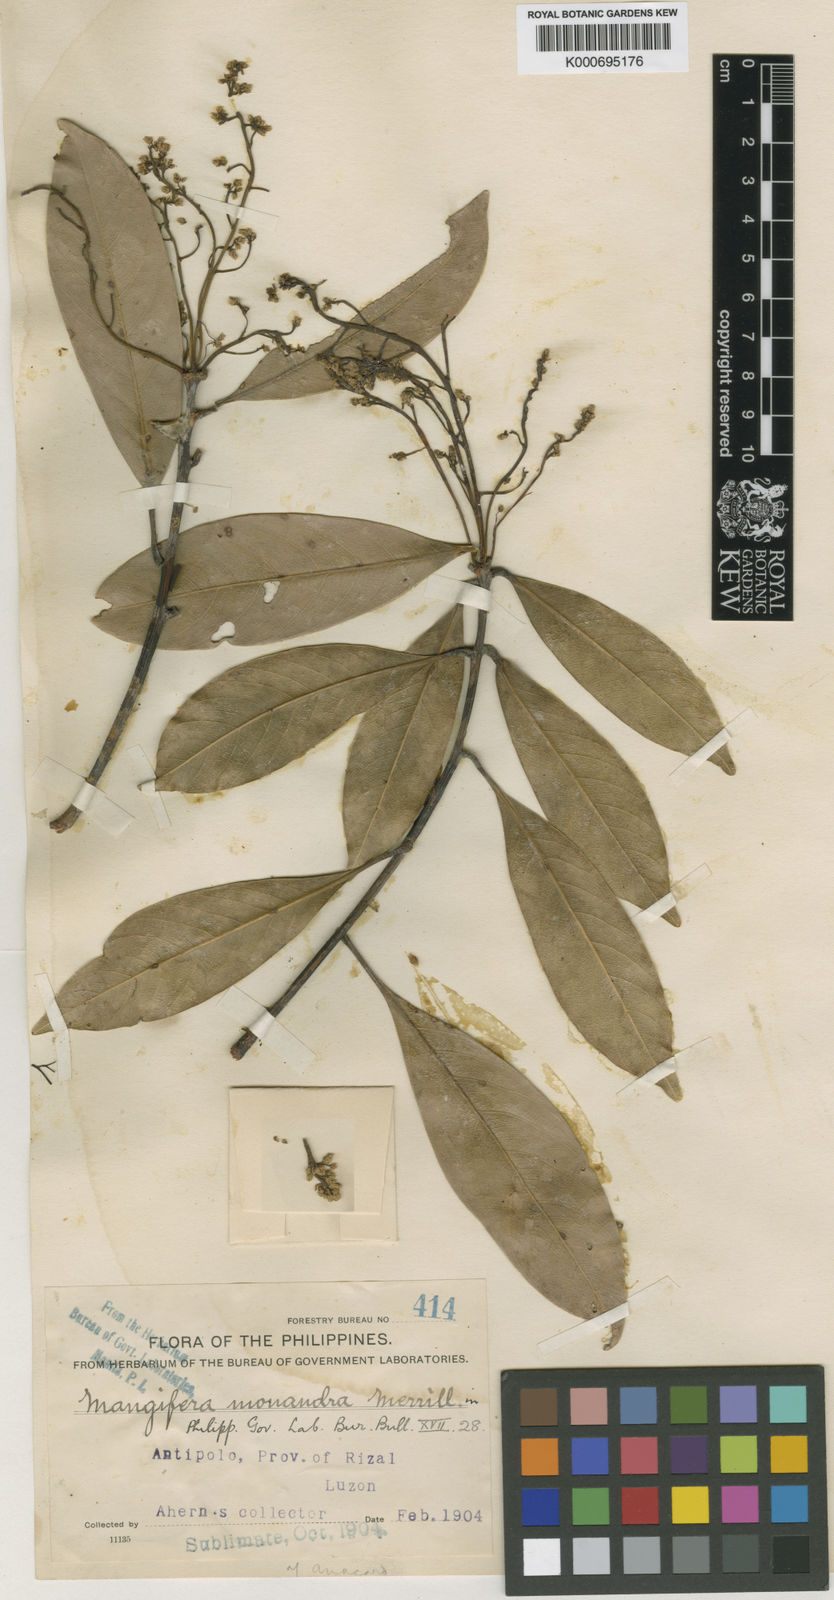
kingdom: Plantae
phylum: Tracheophyta
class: Magnoliopsida
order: Sapindales
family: Anacardiaceae
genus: Mangifera
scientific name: Mangifera monandra
